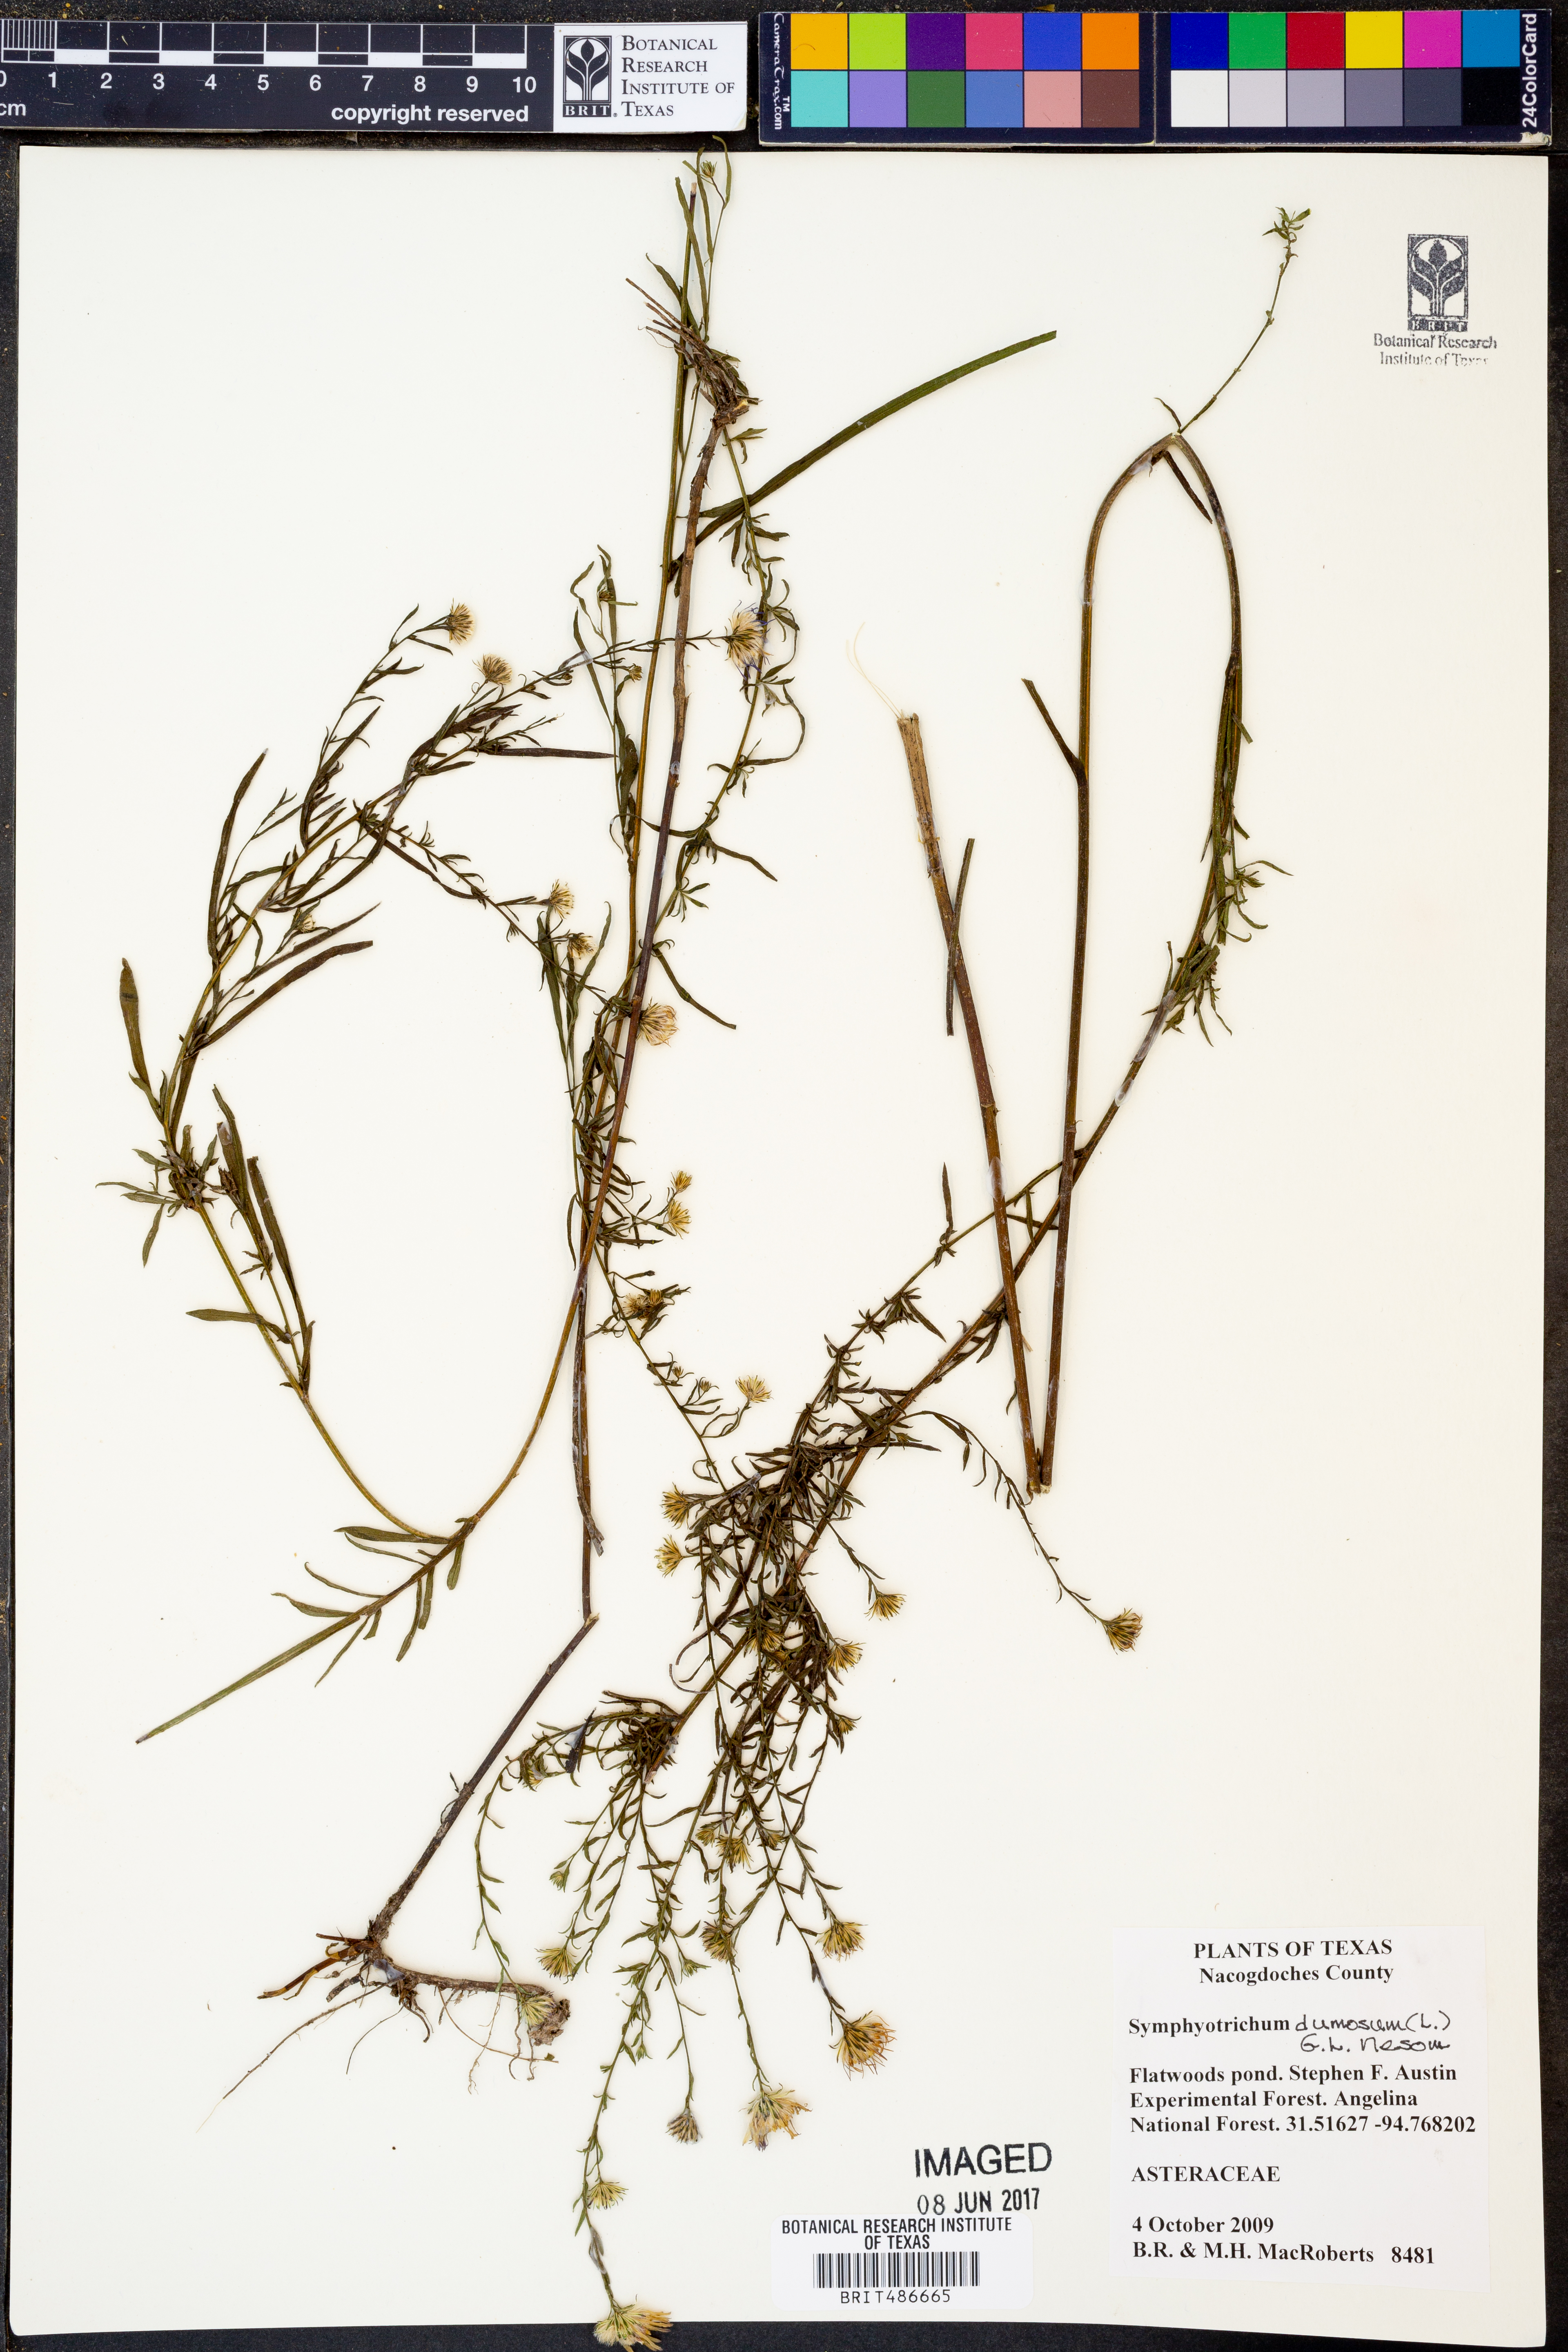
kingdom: Plantae
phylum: Tracheophyta
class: Magnoliopsida
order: Asterales
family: Asteraceae
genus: Symphyotrichum
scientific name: Symphyotrichum dumosum
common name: Bushy aster
